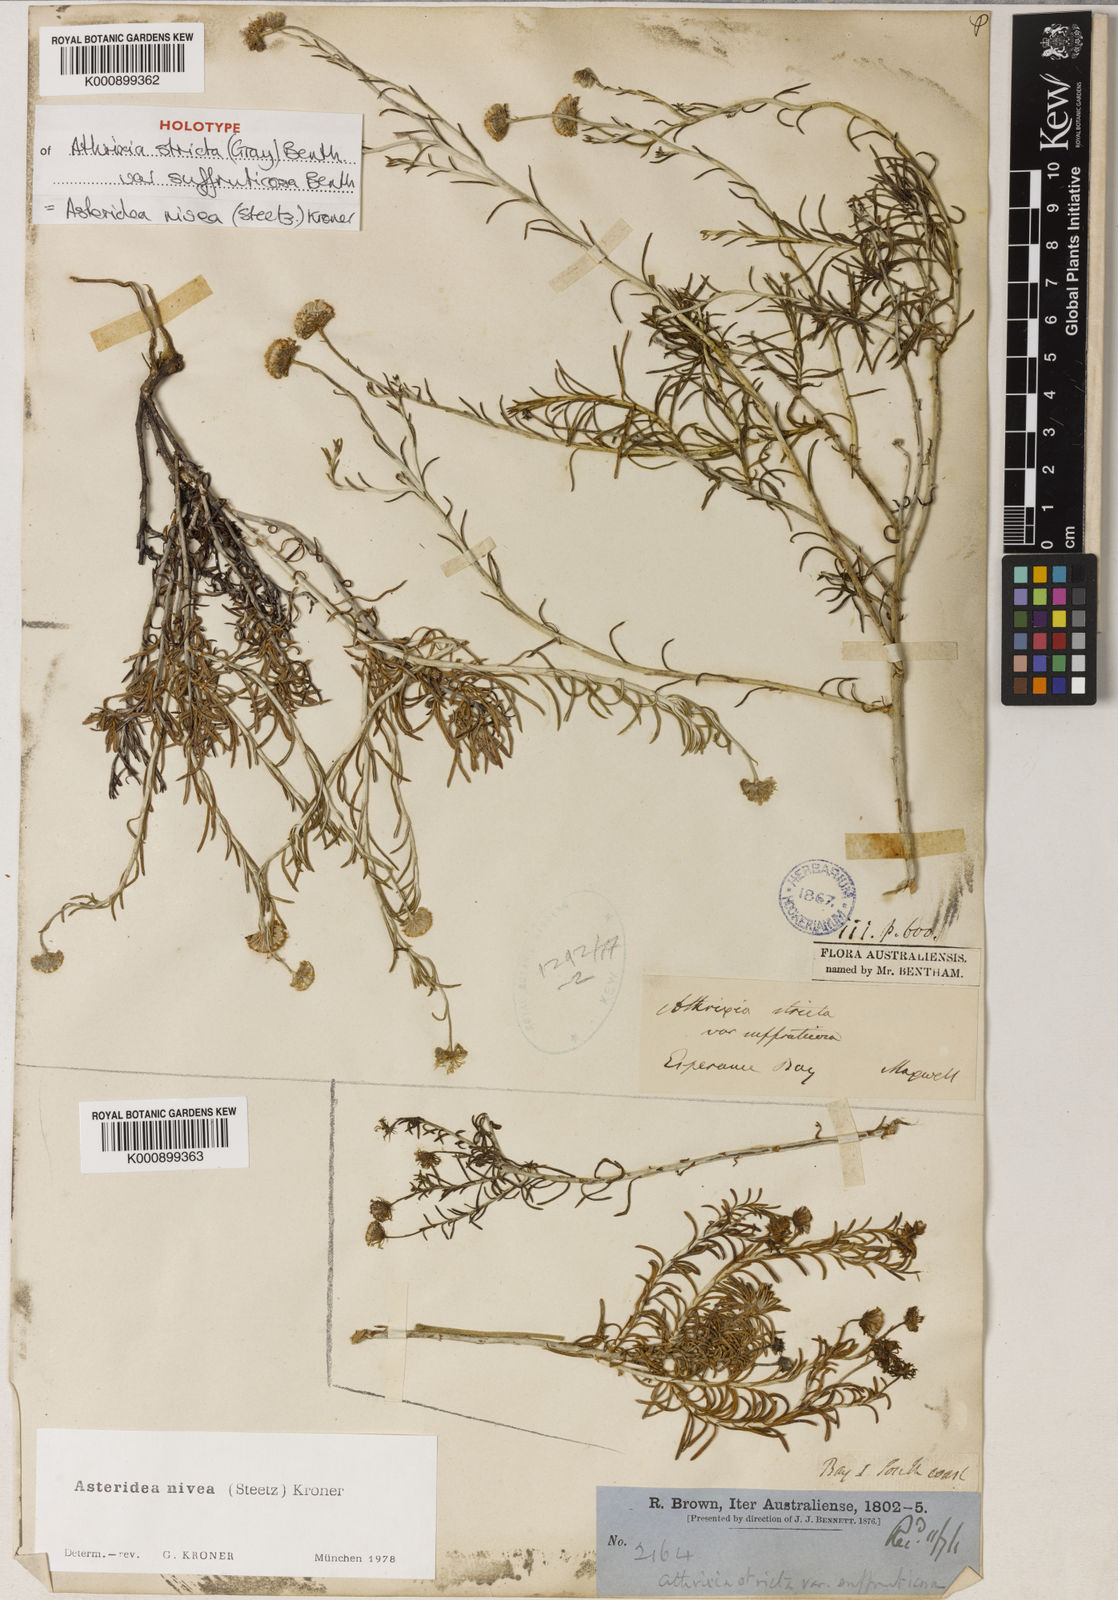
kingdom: Plantae
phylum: Tracheophyta
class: Magnoliopsida
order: Asterales
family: Asteraceae
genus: Asteridea
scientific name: Asteridea nivea
